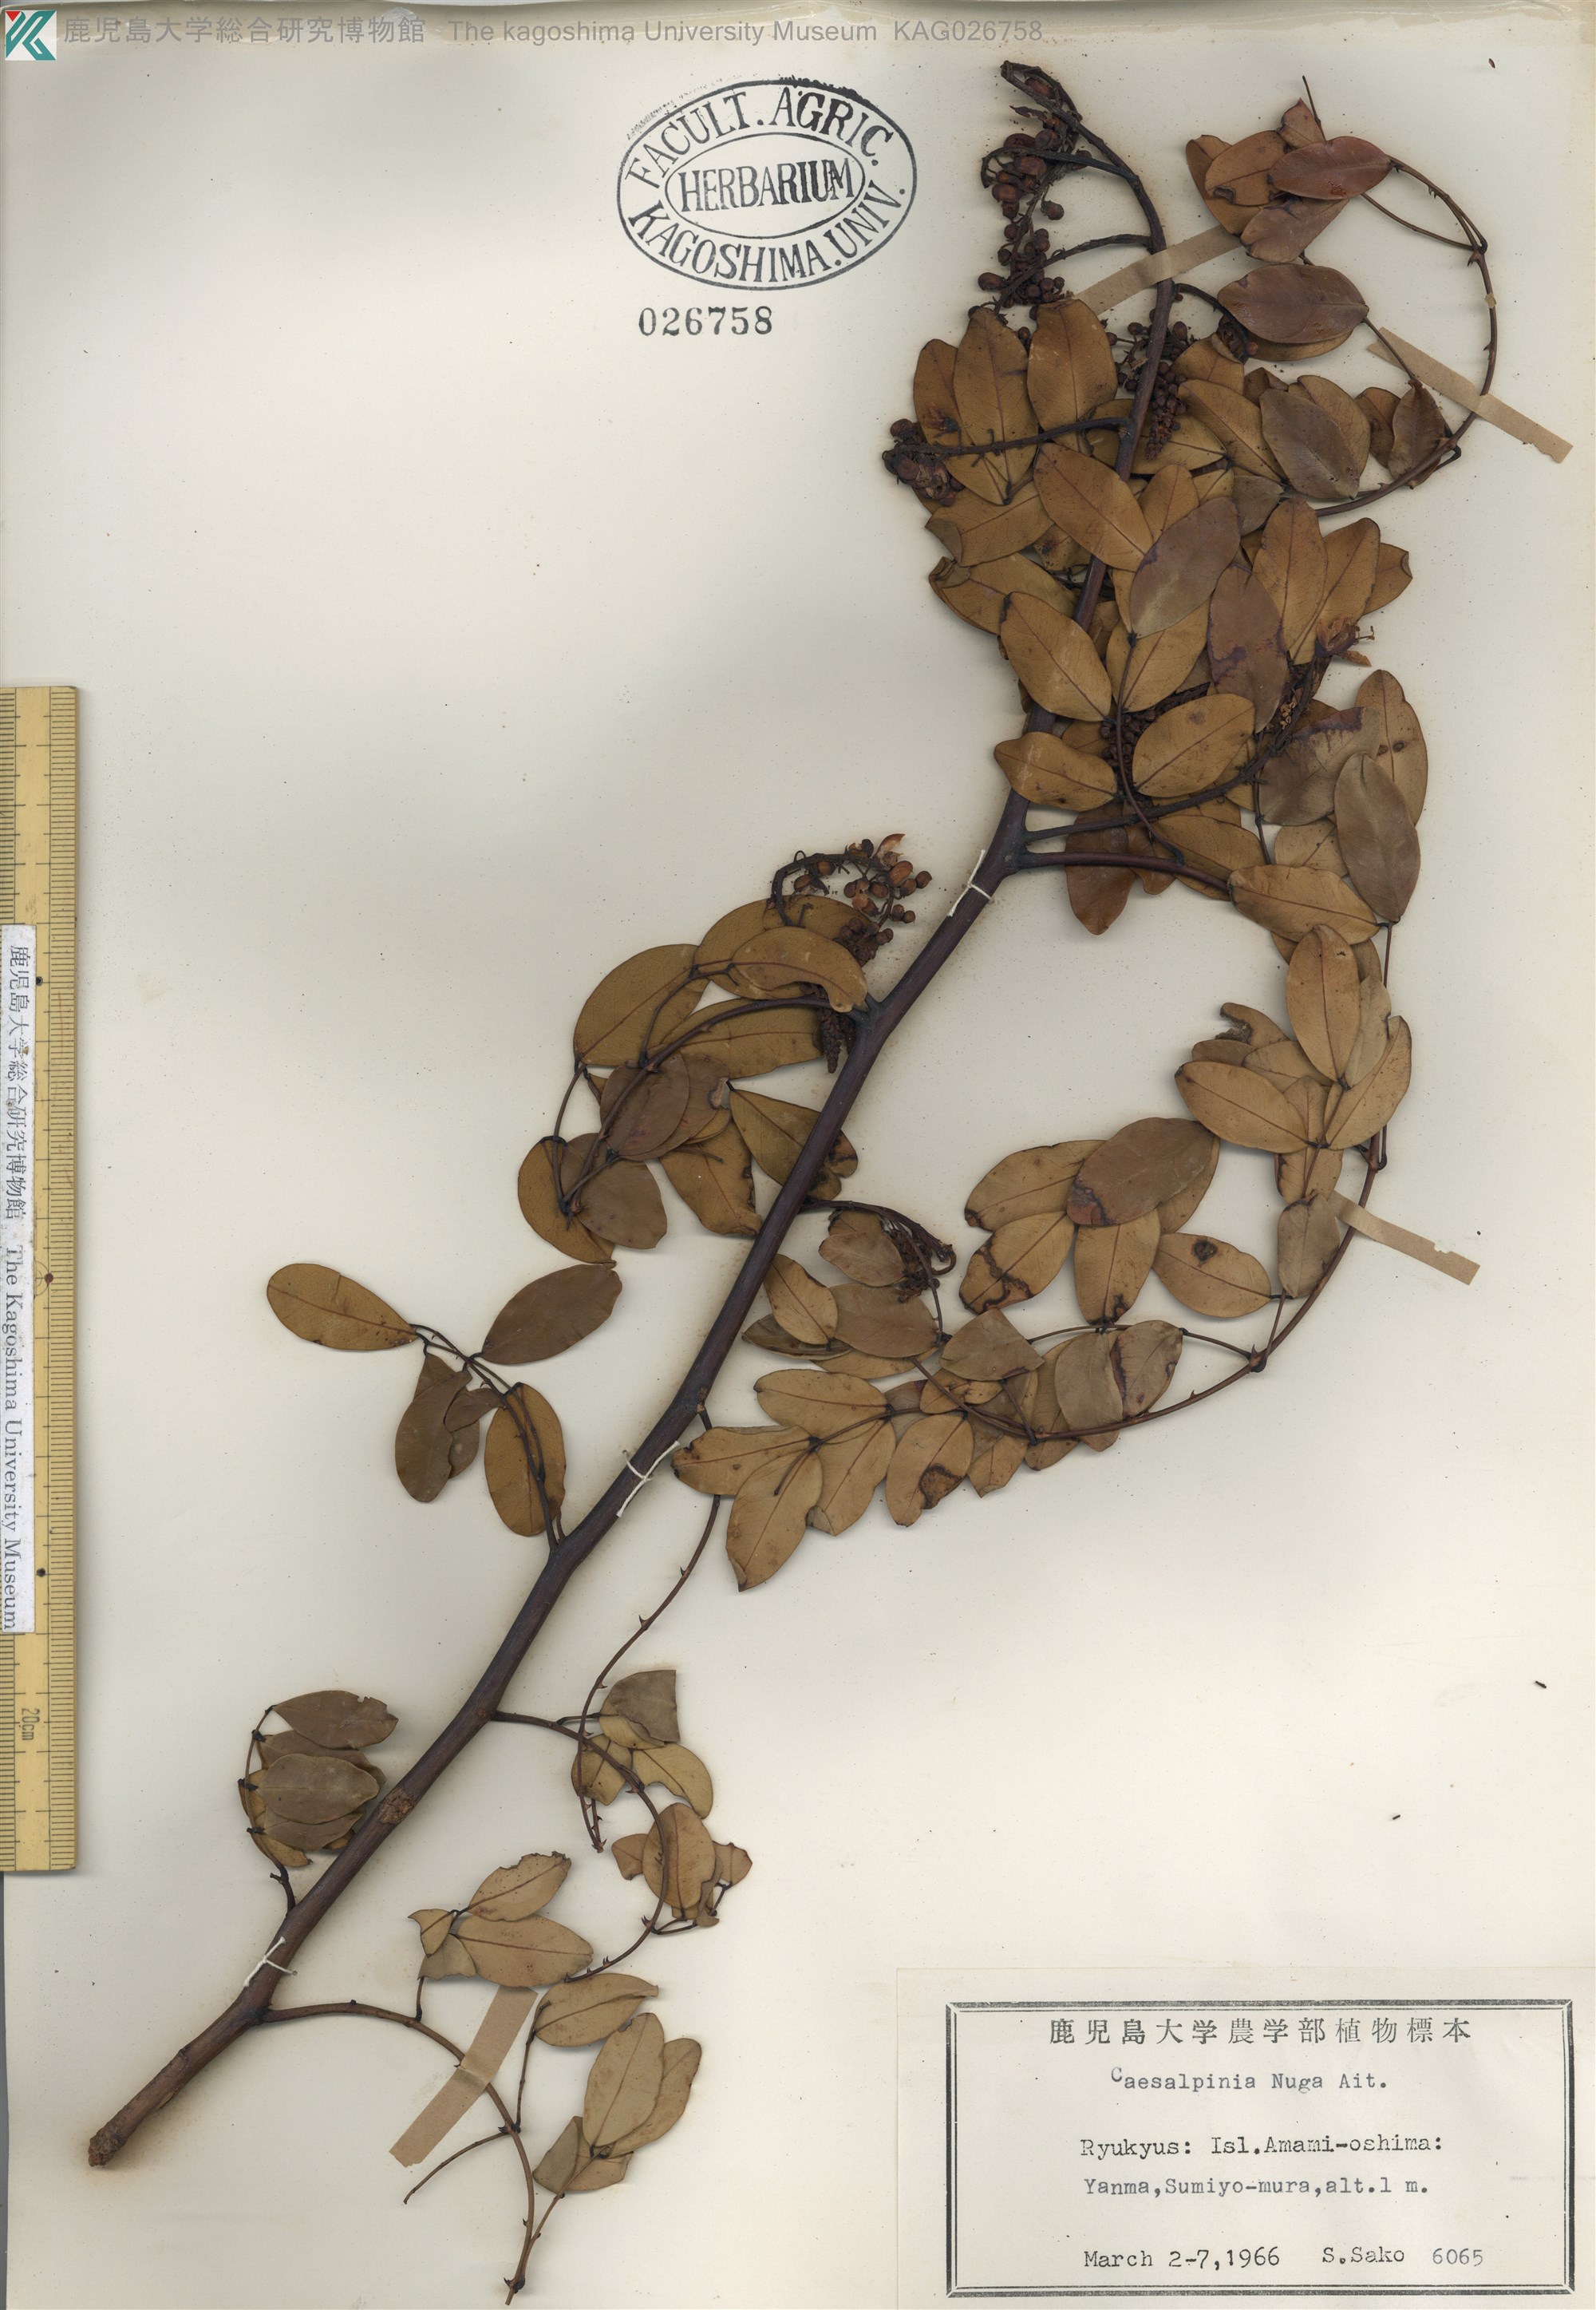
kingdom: Plantae
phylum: Tracheophyta
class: Magnoliopsida
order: Fabales
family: Fabaceae
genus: Caesalpinia
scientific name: Caesalpinia Ticanto crista
